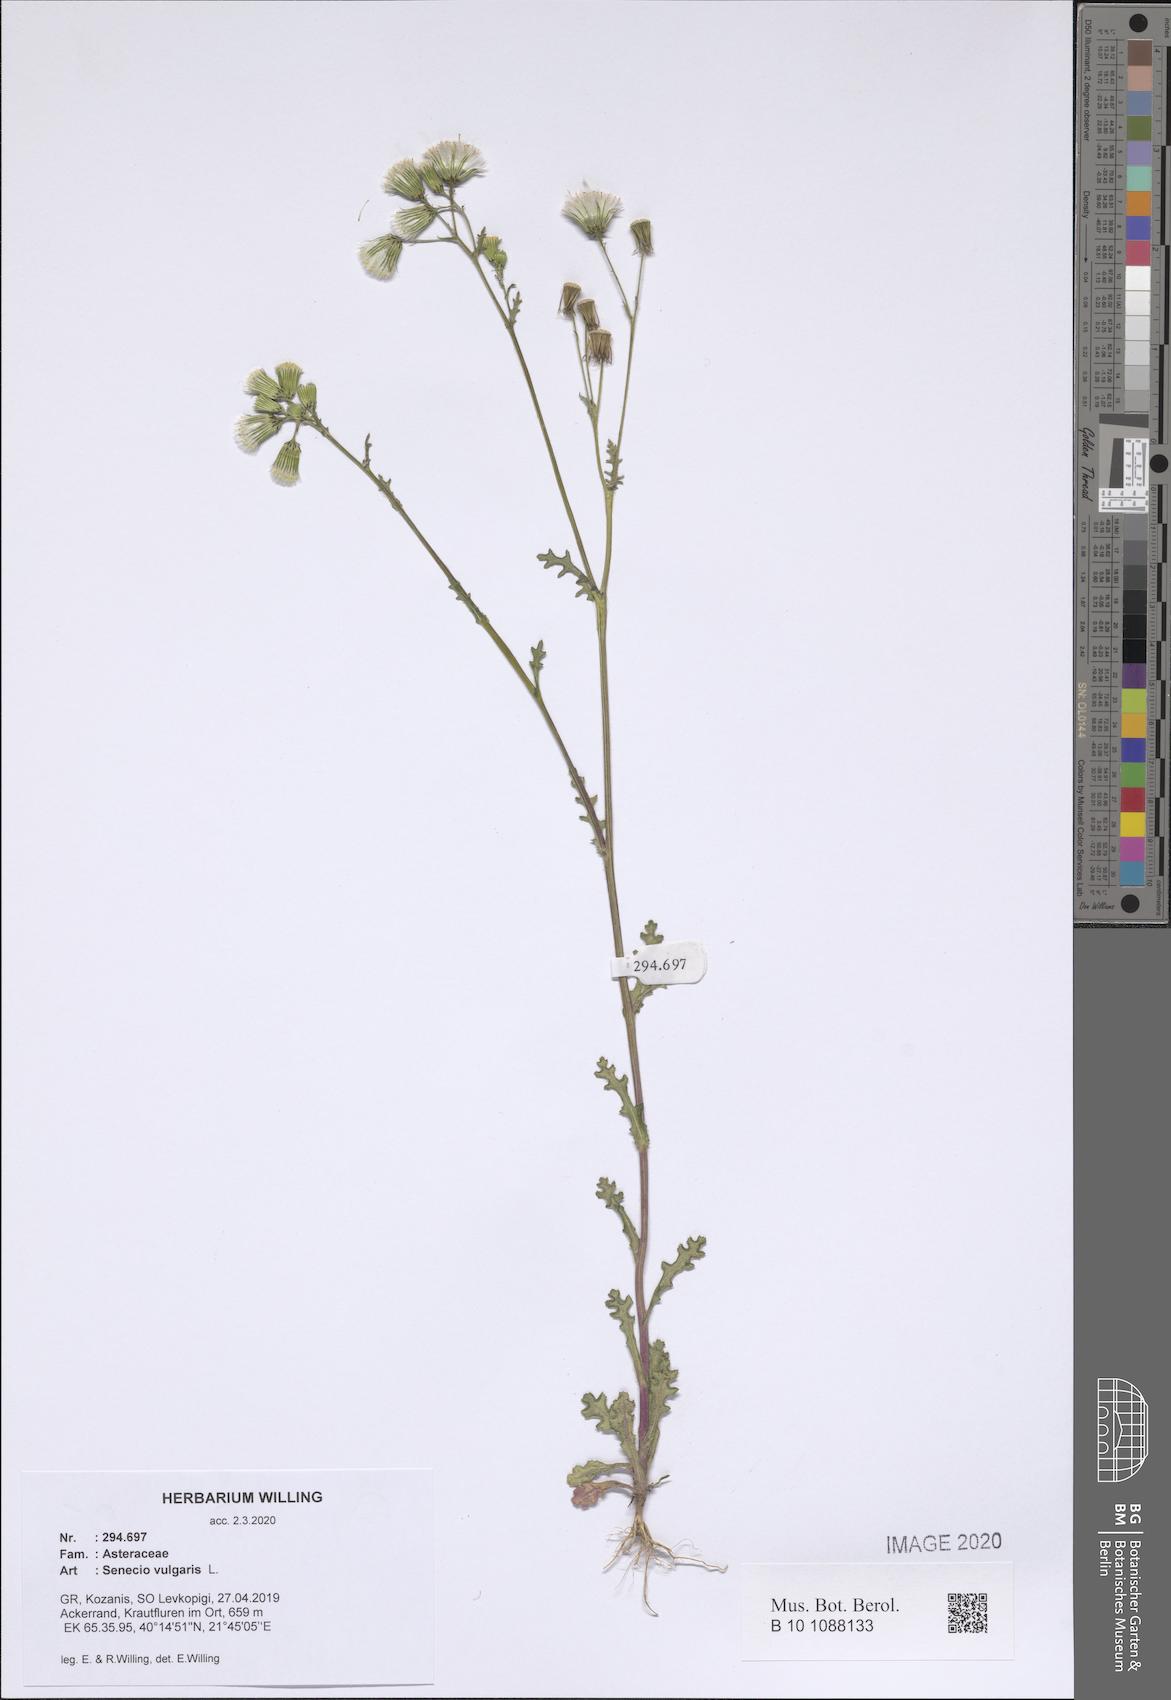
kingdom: Plantae
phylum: Tracheophyta
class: Magnoliopsida
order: Asterales
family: Asteraceae
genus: Senecio
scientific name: Senecio vulgaris
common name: Old-man-in-the-spring
